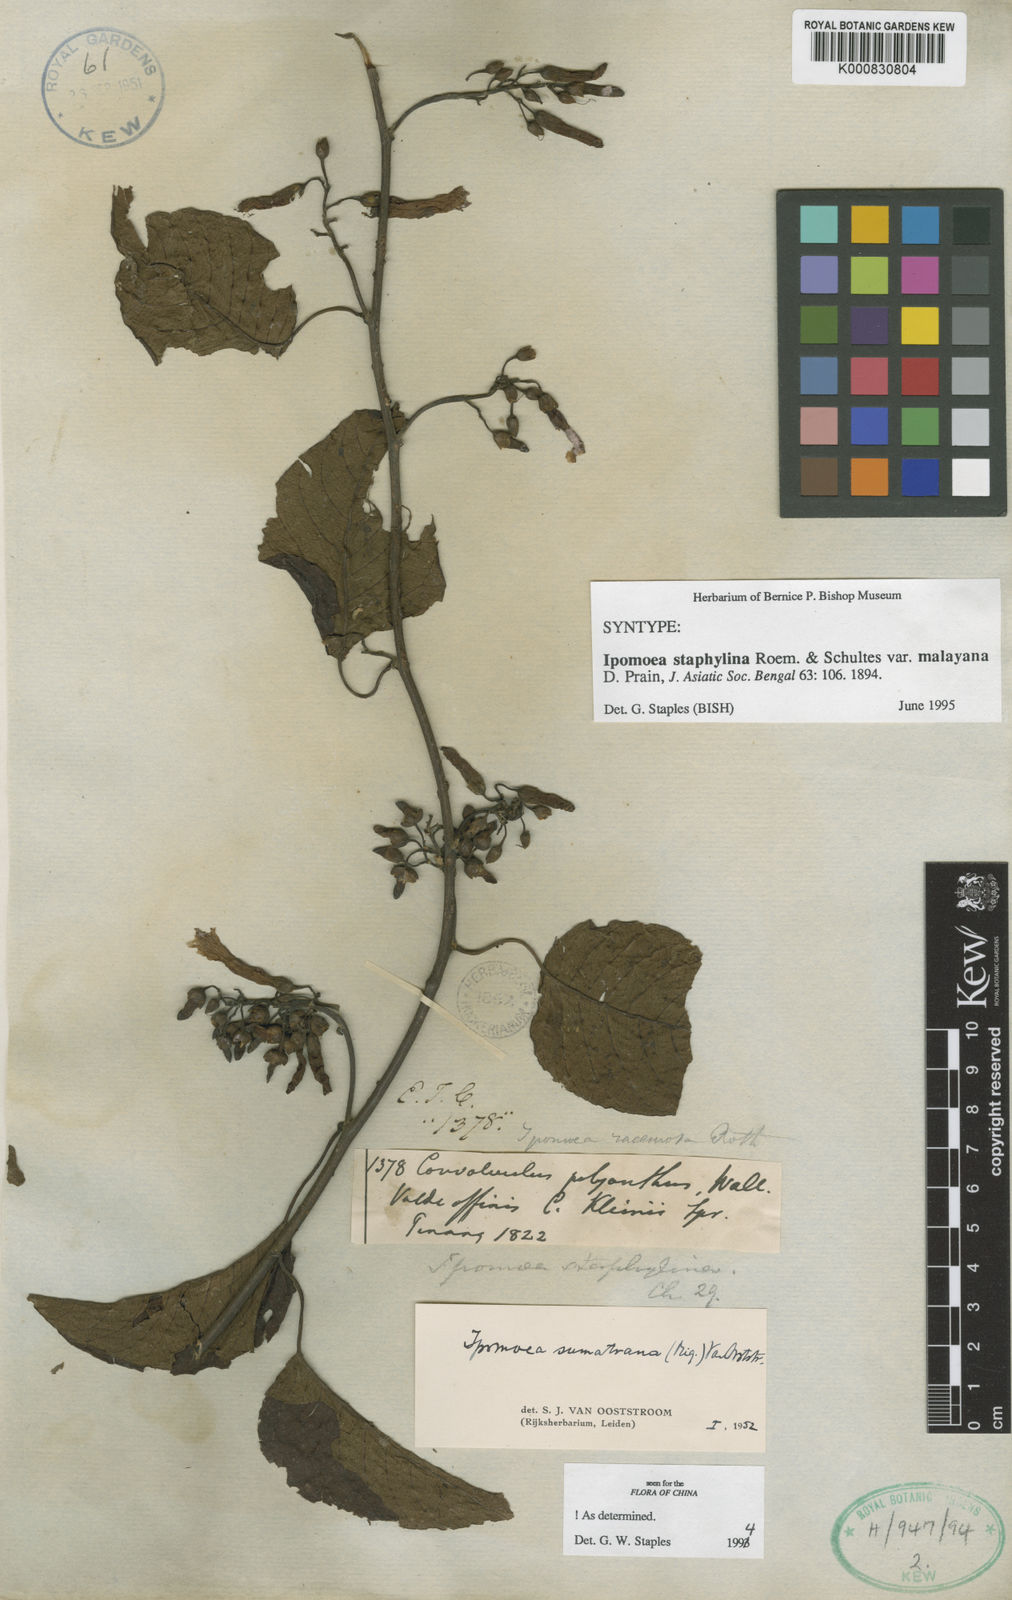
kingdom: Plantae
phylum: Tracheophyta
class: Magnoliopsida
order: Solanales
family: Convolvulaceae
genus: Ipomoea
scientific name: Ipomoea staphylina
